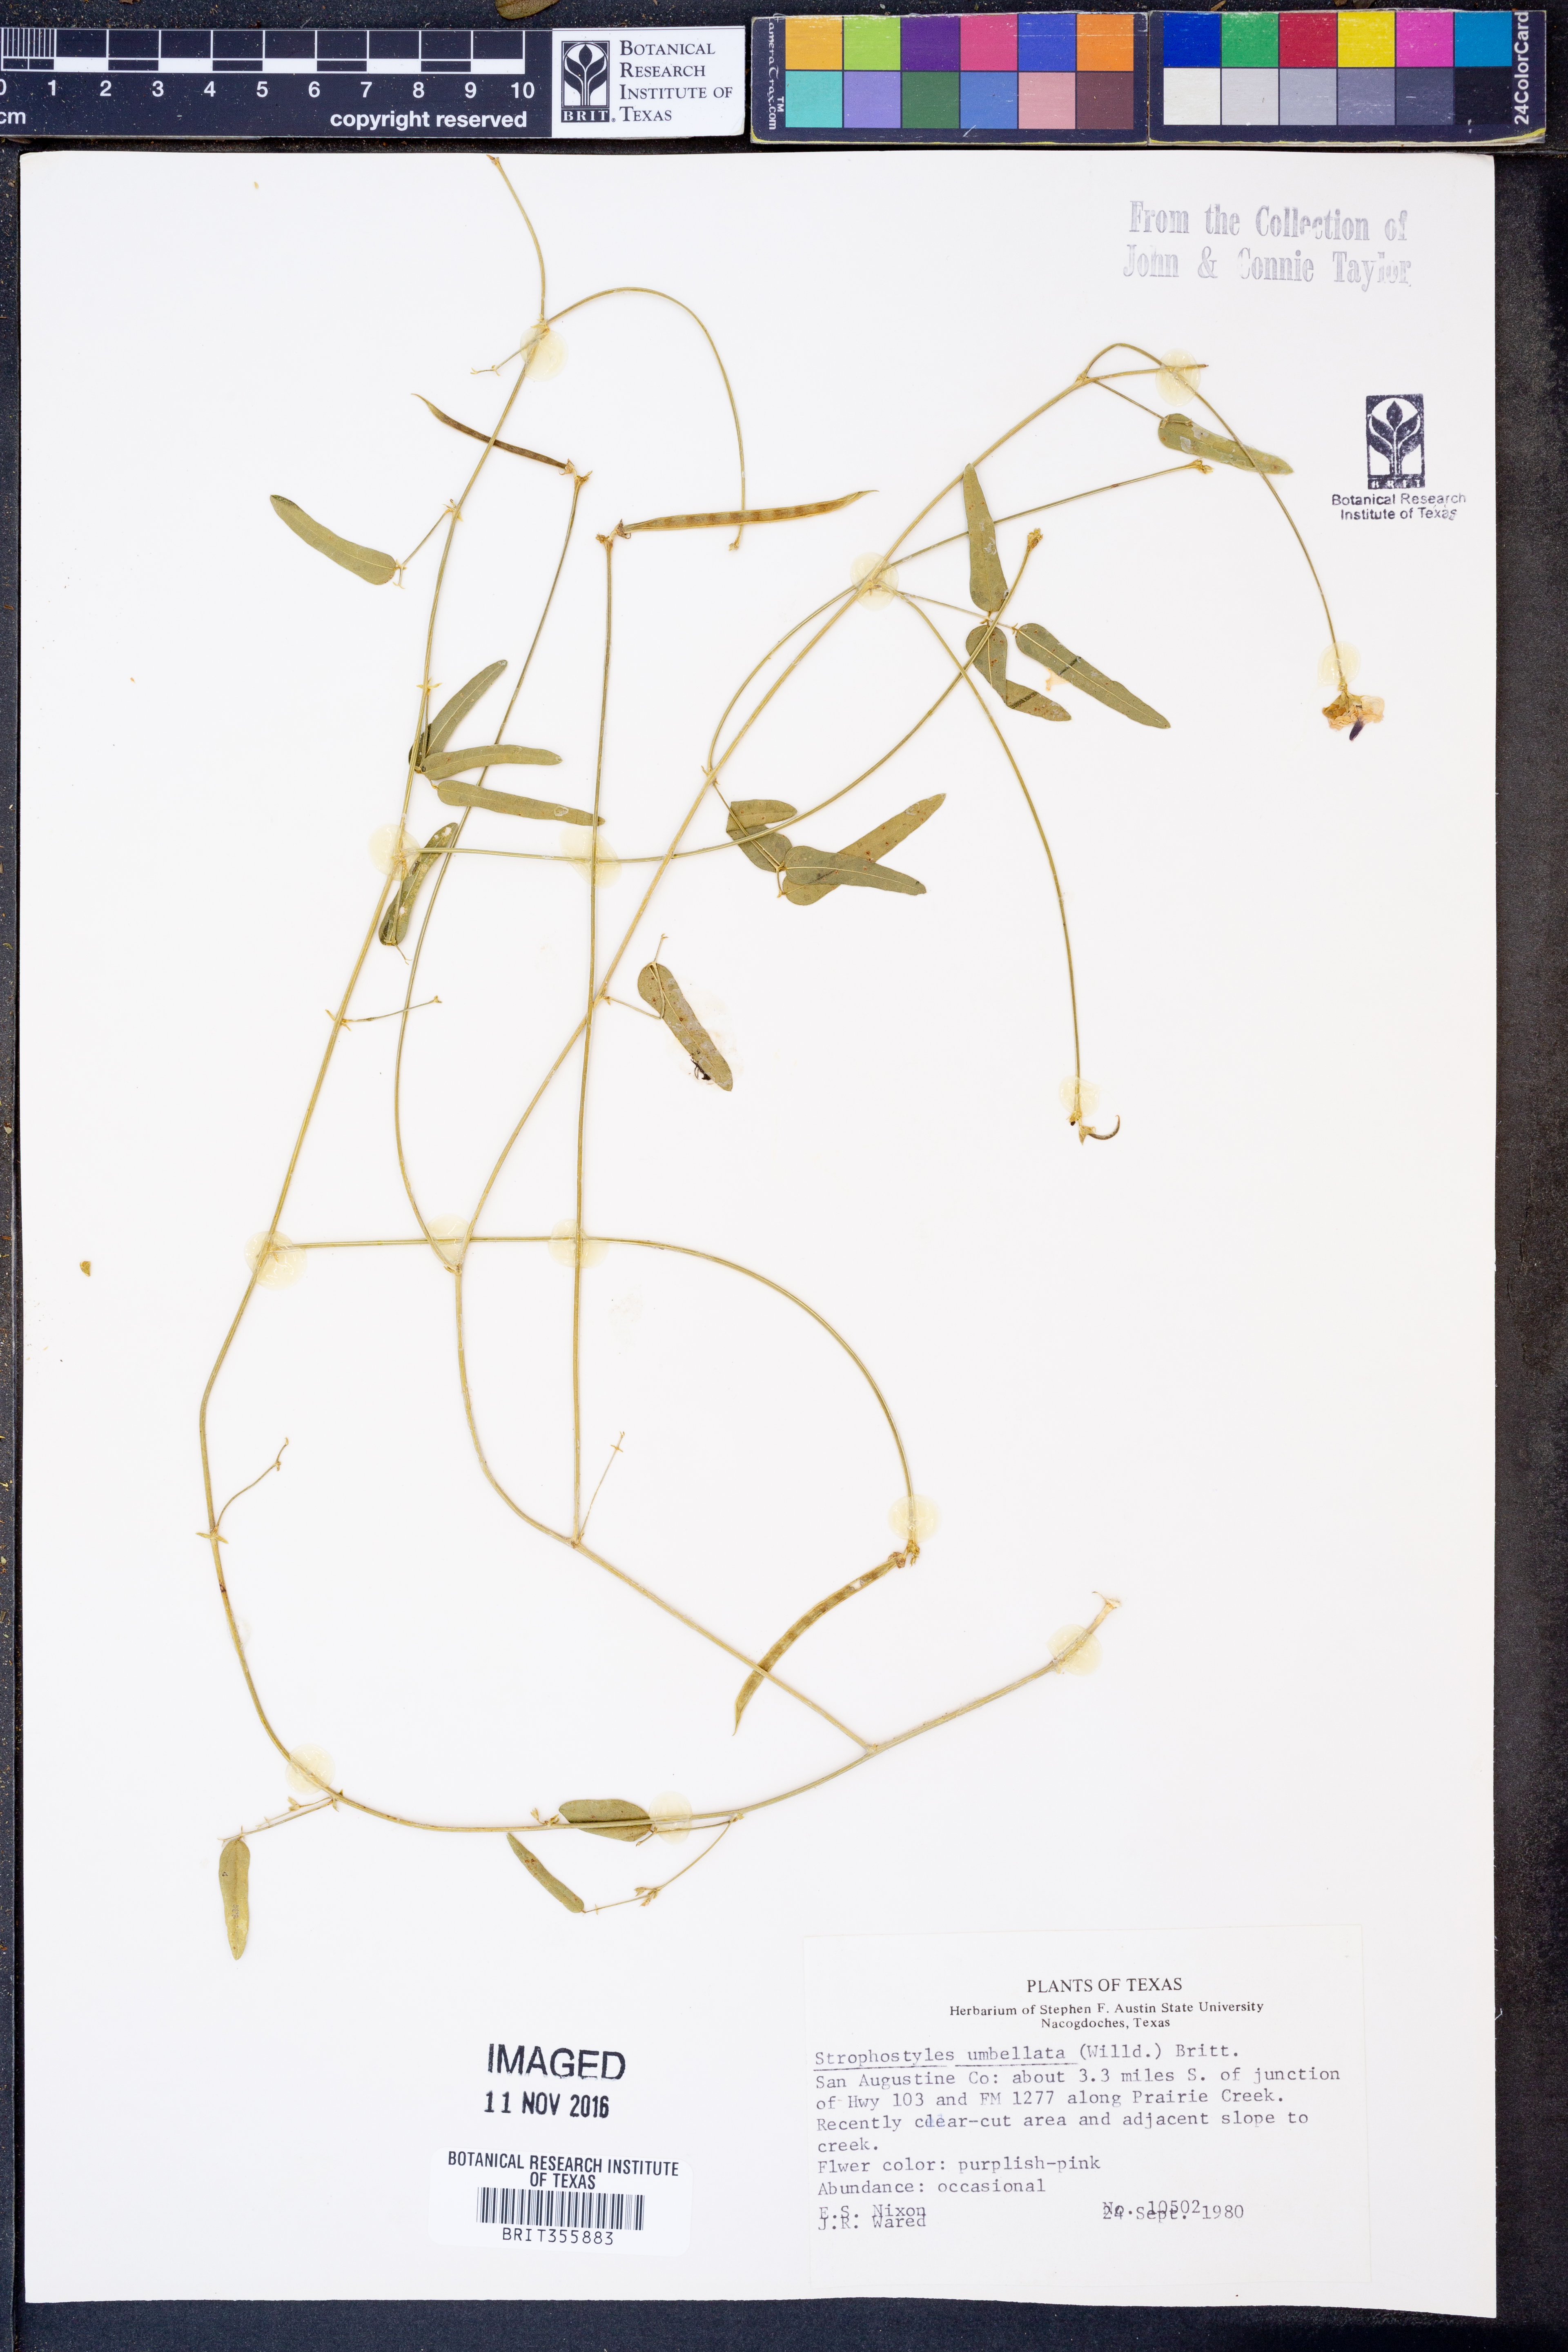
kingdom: Plantae
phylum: Tracheophyta
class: Magnoliopsida
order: Fabales
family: Fabaceae
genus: Strophostyles
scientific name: Strophostyles umbellata
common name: Perennial wild bean
